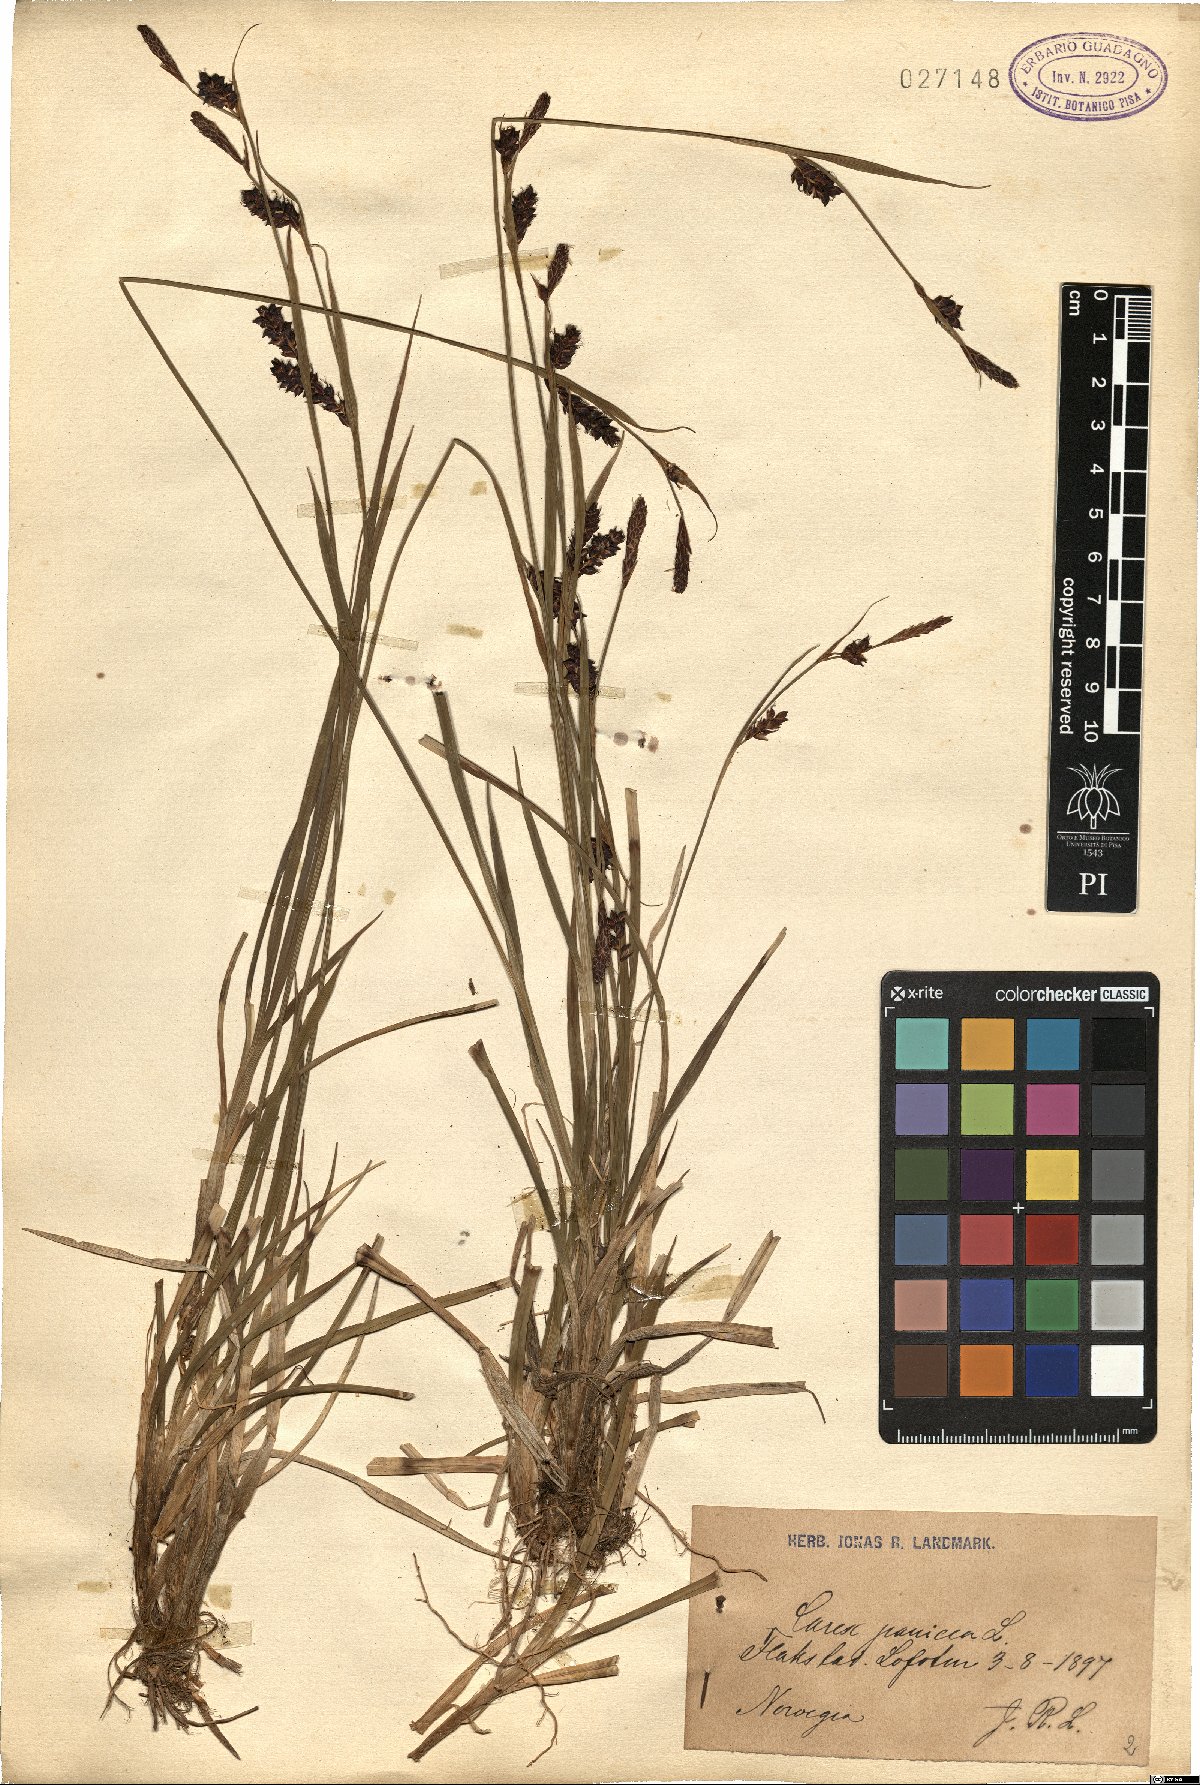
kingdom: Plantae
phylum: Tracheophyta
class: Liliopsida
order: Poales
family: Cyperaceae
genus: Carex
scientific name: Carex panicea
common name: Carnation sedge
